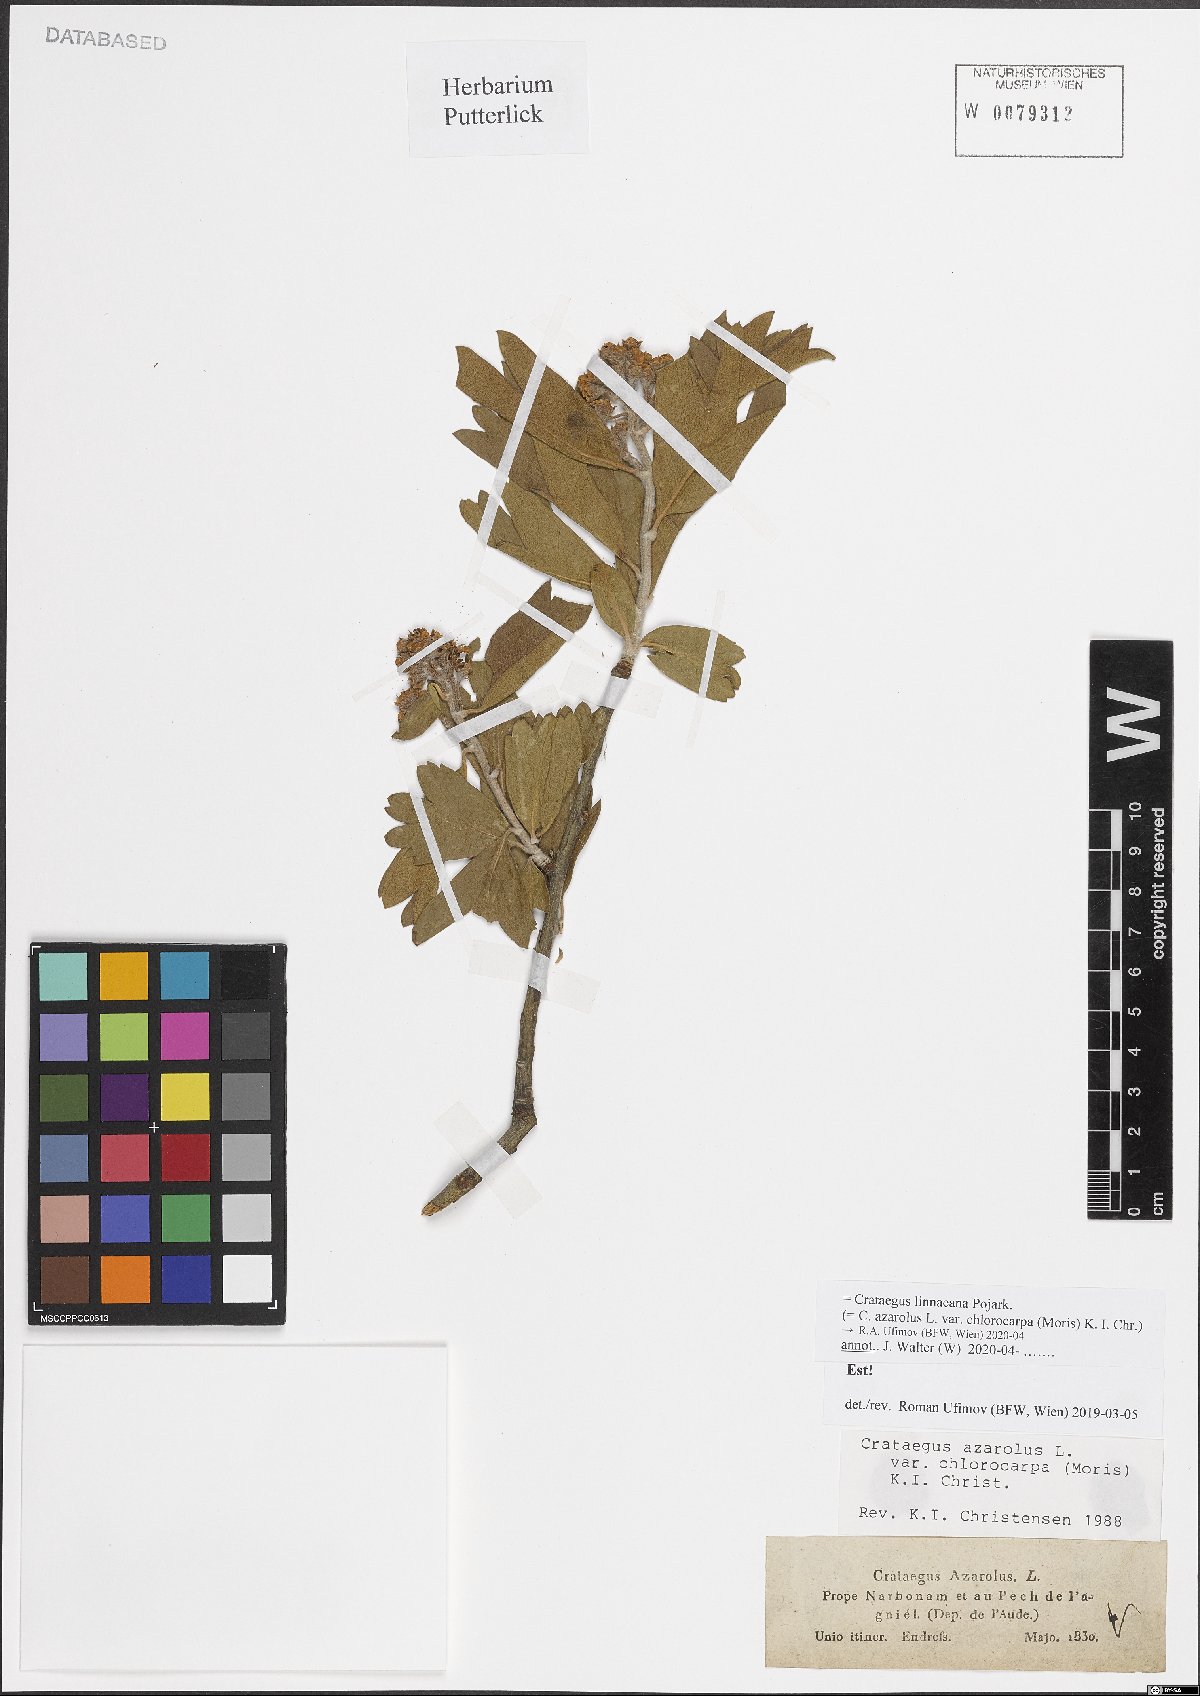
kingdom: Plantae
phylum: Tracheophyta
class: Magnoliopsida
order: Rosales
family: Rosaceae
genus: Crataegus
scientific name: Crataegus azarolus
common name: Azarole
